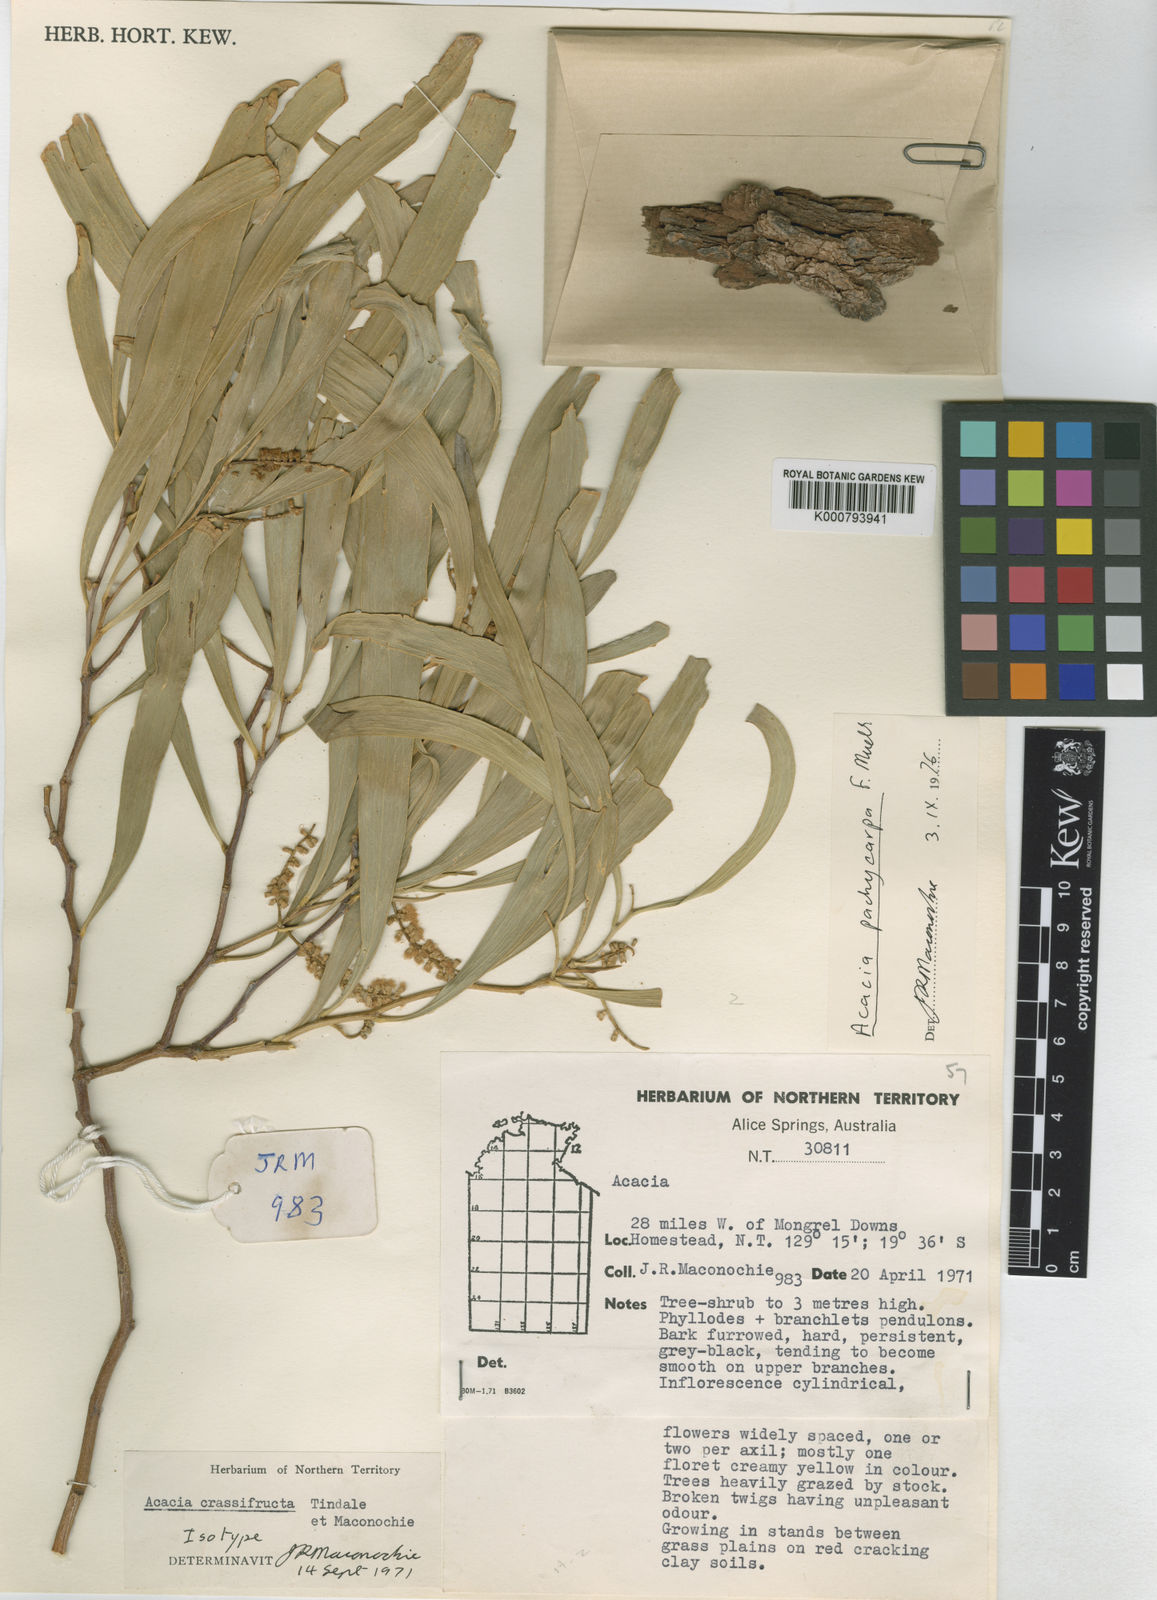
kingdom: Plantae
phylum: Tracheophyta
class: Magnoliopsida
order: Fabales
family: Fabaceae
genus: Acacia
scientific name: Acacia
